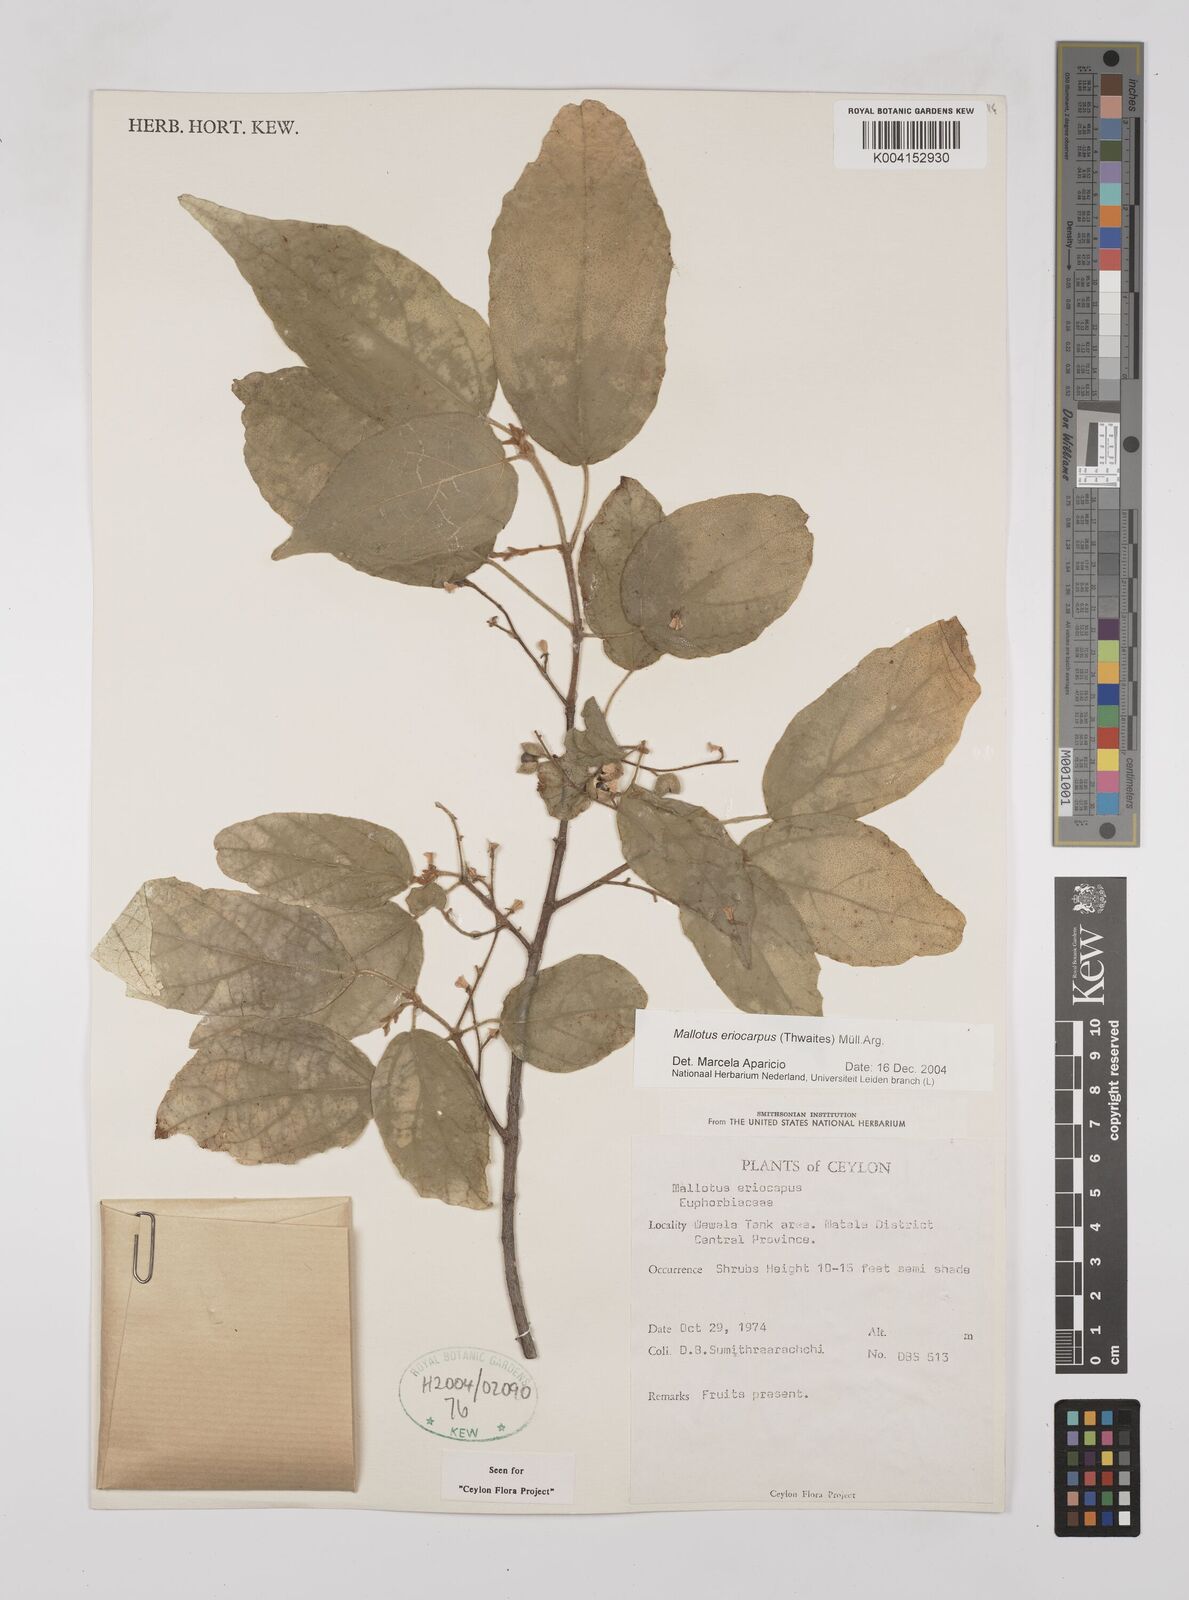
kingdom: Plantae
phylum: Tracheophyta
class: Magnoliopsida
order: Malpighiales
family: Euphorbiaceae
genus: Mallotus
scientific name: Mallotus eriocarpus
